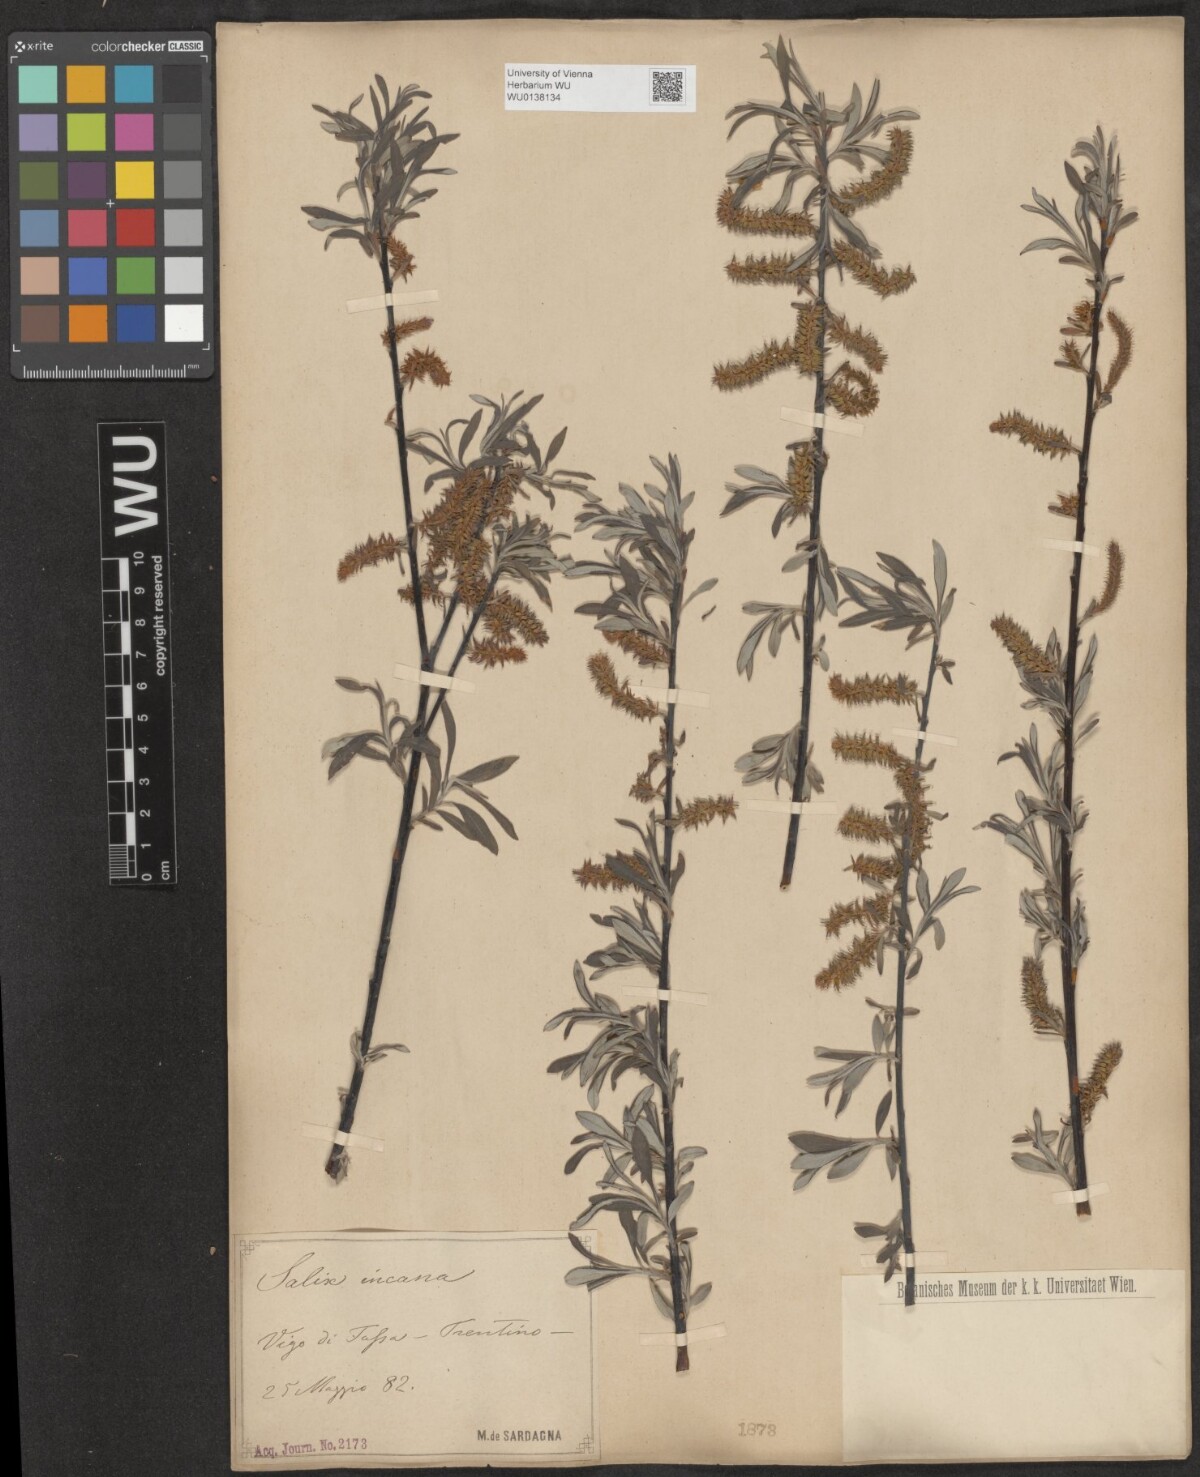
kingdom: Plantae
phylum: Tracheophyta
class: Magnoliopsida
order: Malpighiales
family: Salicaceae
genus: Salix
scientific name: Salix eleagnos
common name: Elaeagnus willow
